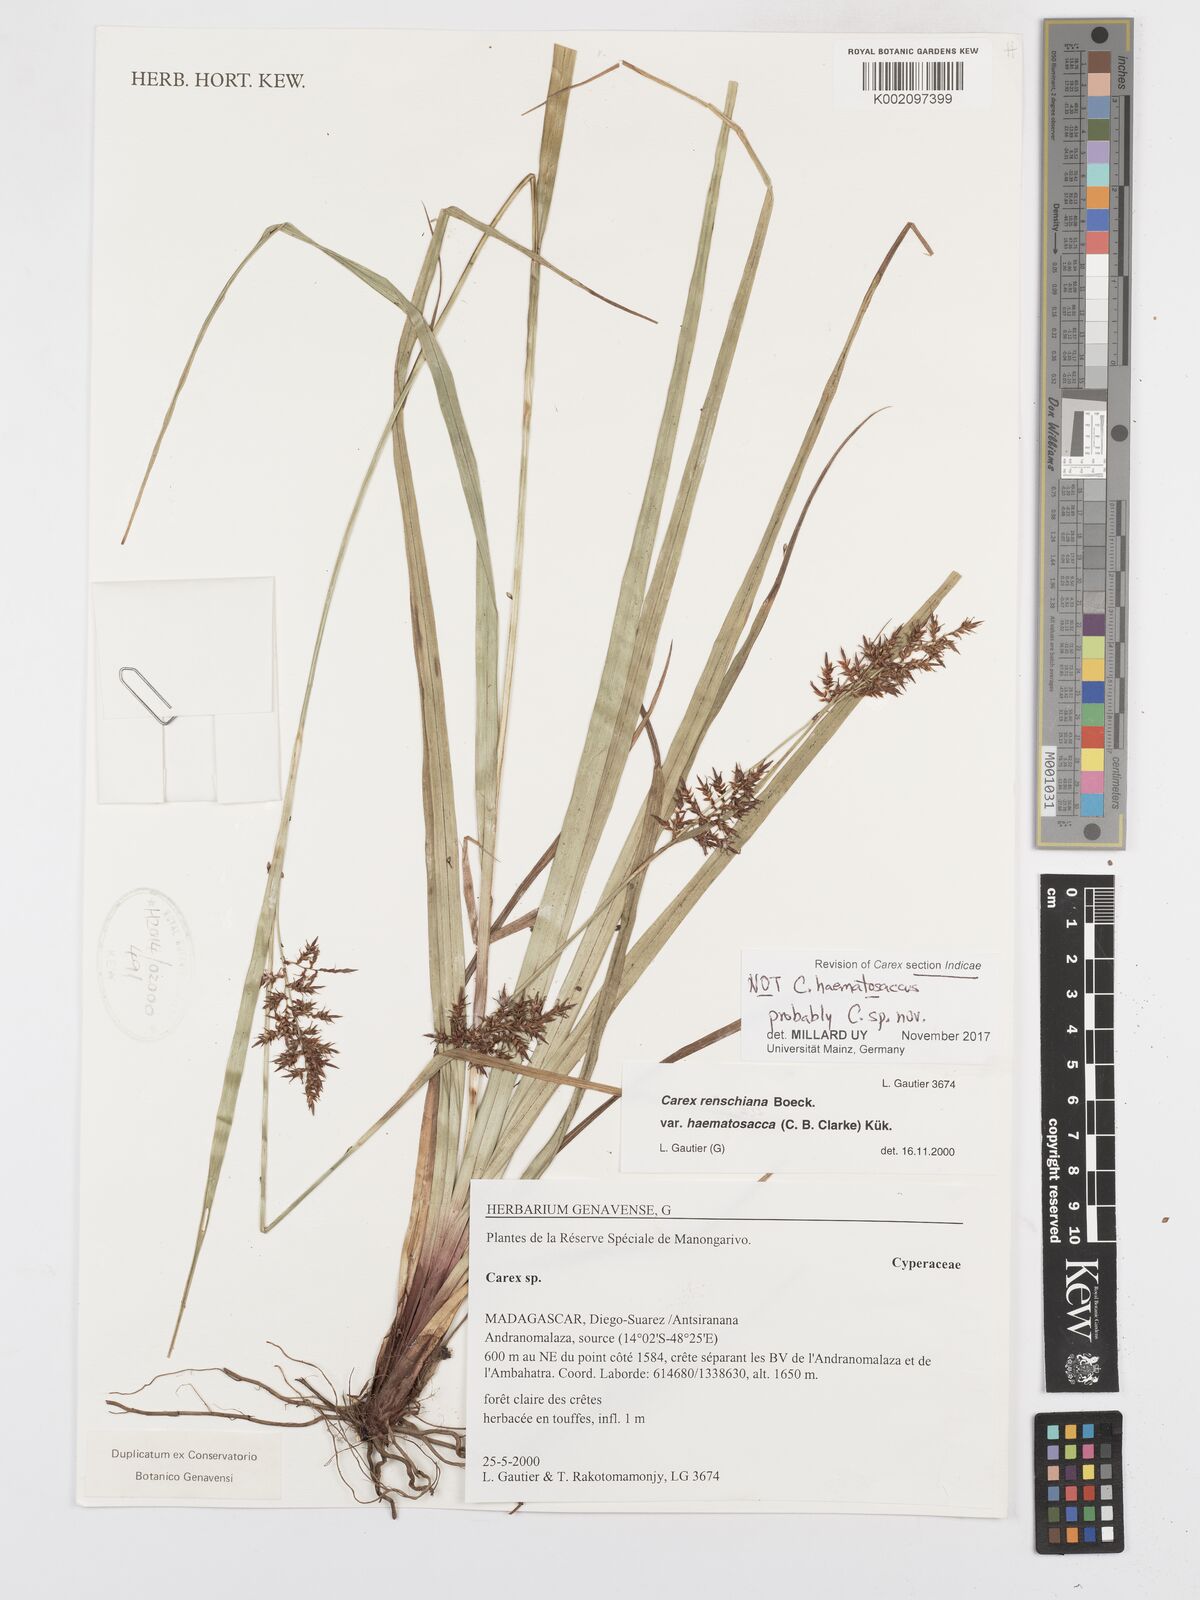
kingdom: Plantae
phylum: Tracheophyta
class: Liliopsida
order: Poales
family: Cyperaceae
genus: Carex
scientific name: Carex
